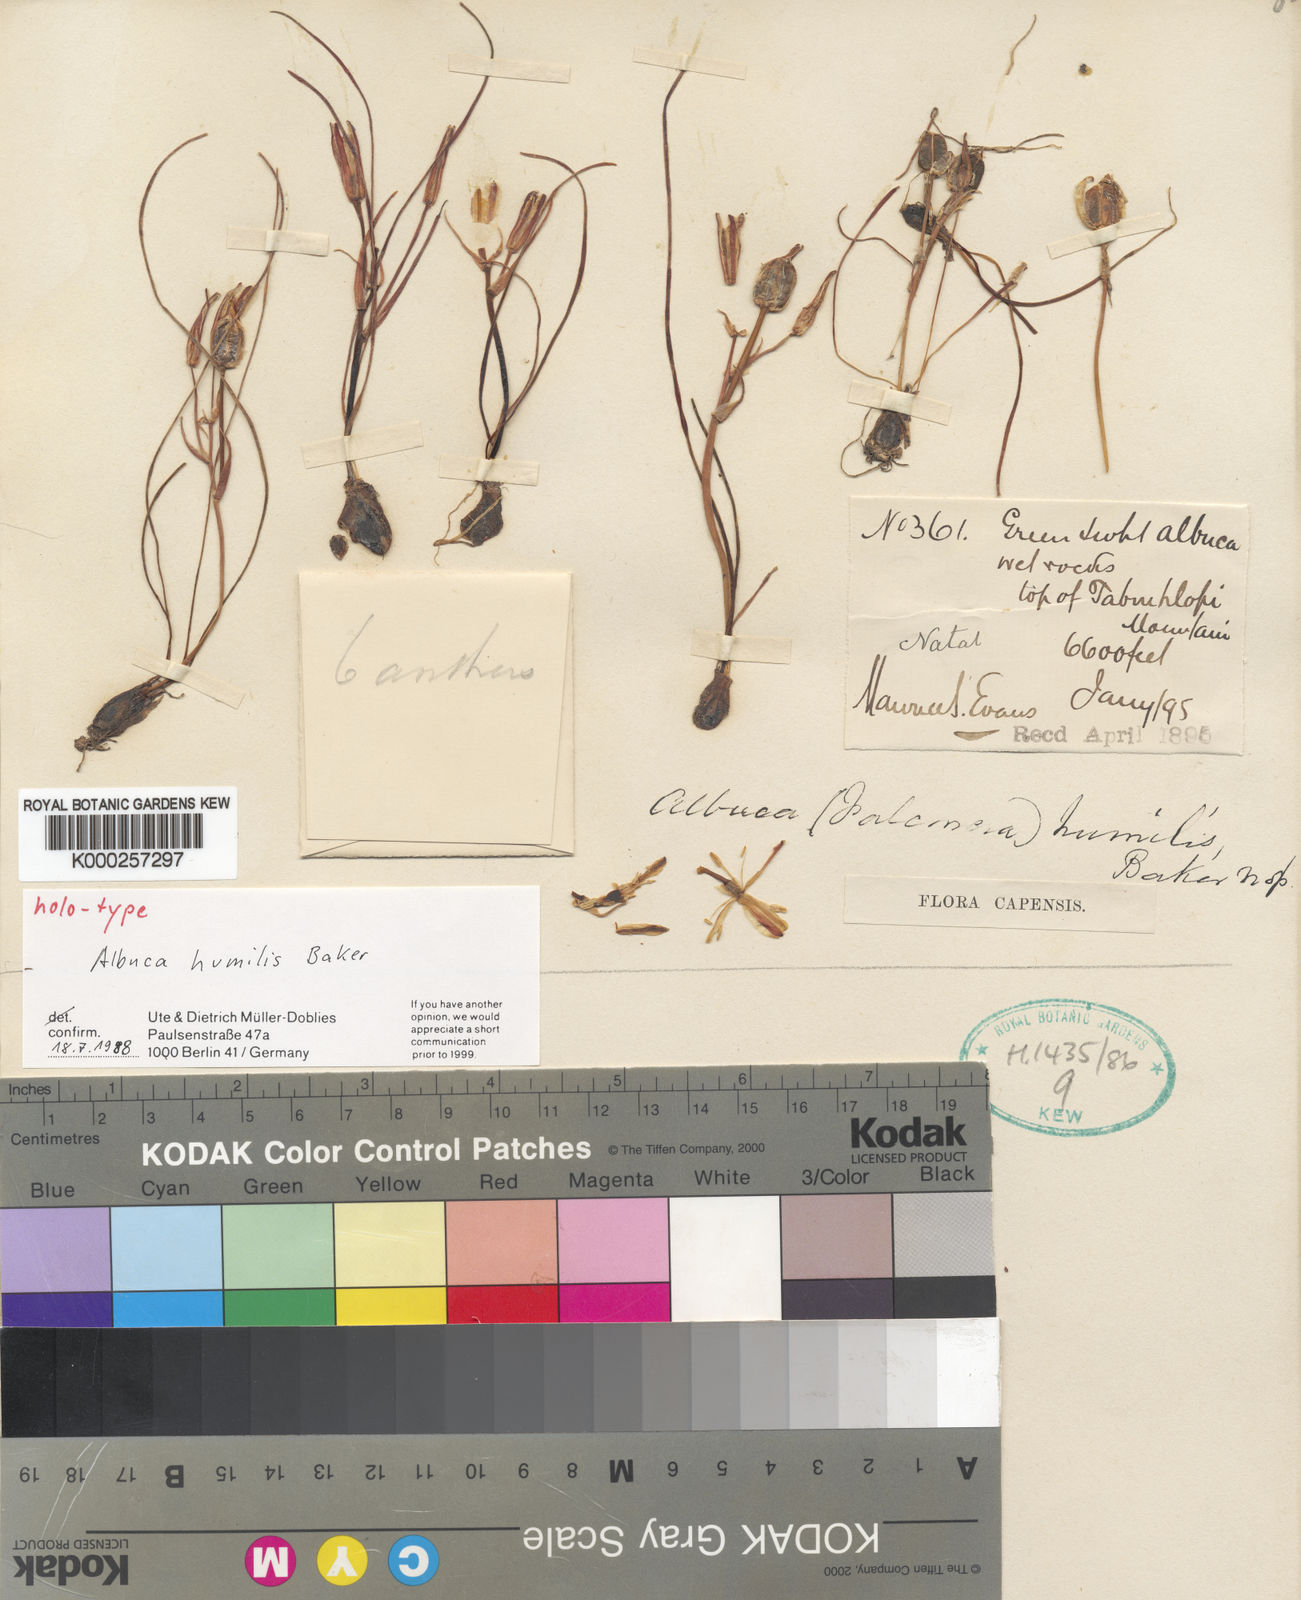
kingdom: Plantae
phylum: Tracheophyta
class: Liliopsida
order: Asparagales
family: Asparagaceae
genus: Albuca
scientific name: Albuca humilis
